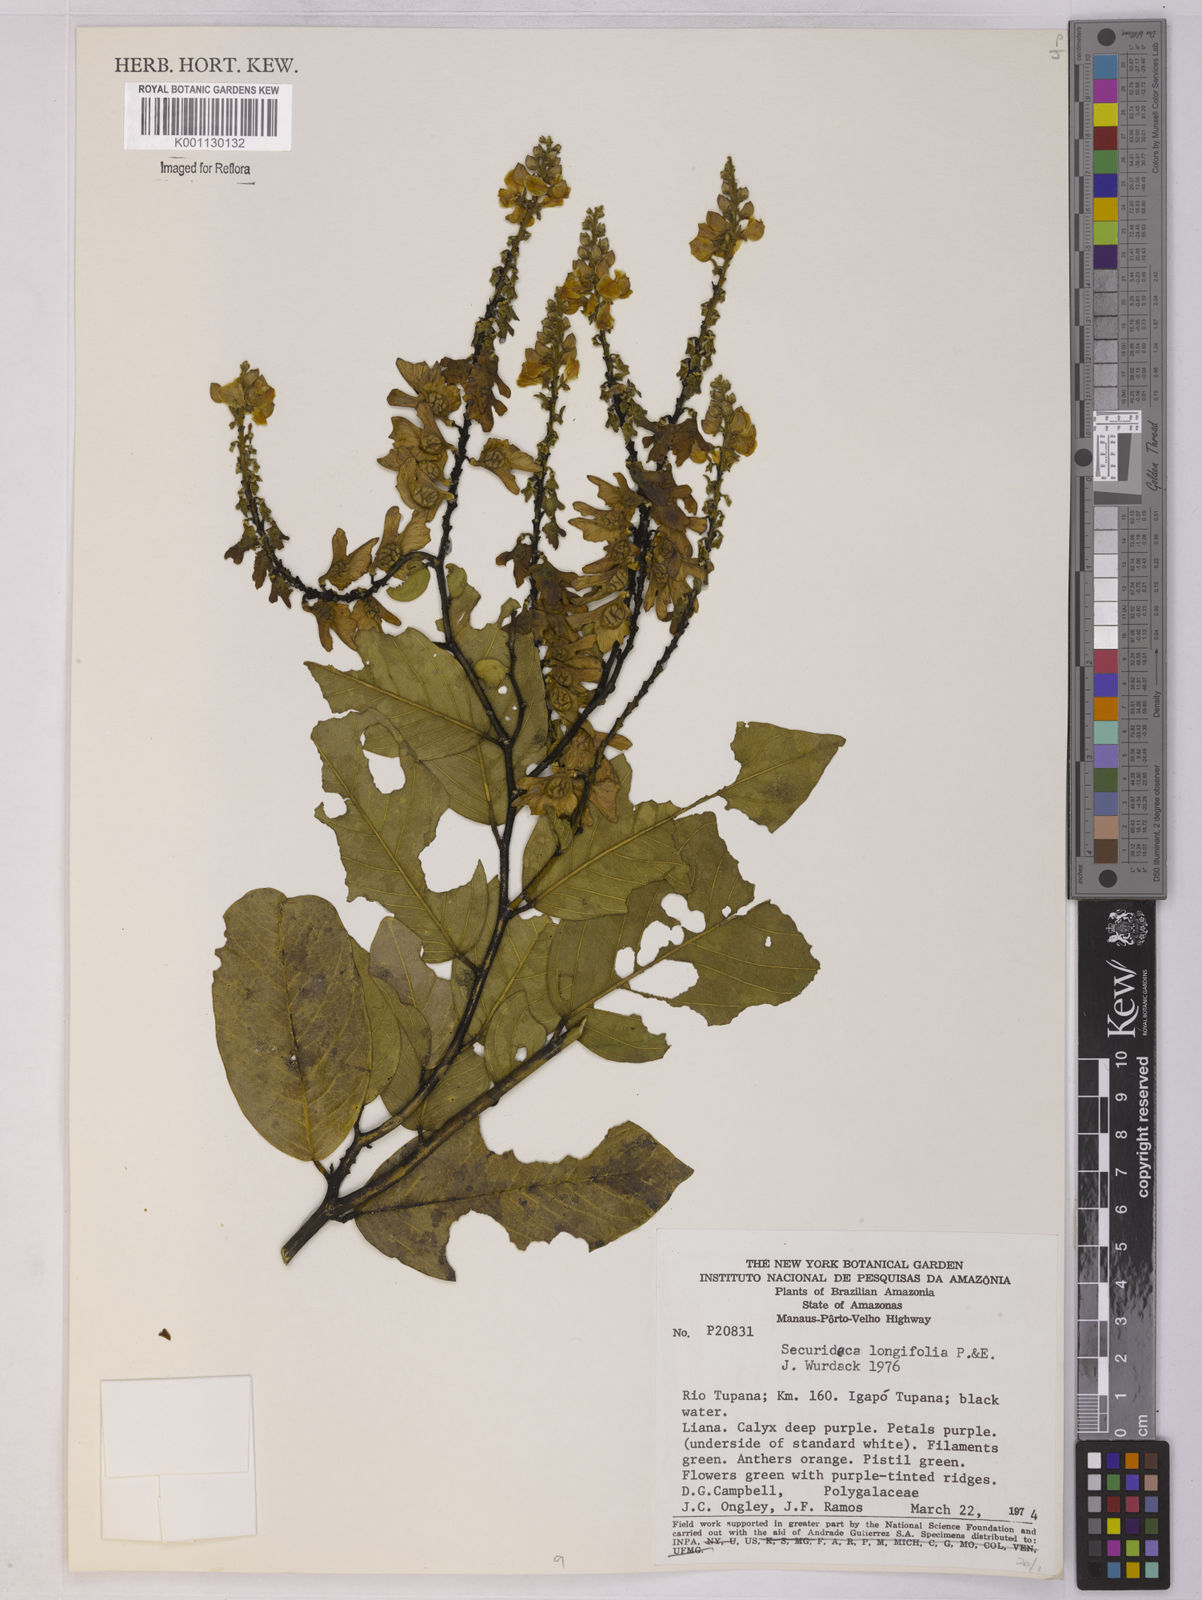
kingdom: Plantae
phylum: Tracheophyta
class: Magnoliopsida
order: Fabales
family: Polygalaceae
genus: Securidaca
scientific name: Securidaca longifolia
